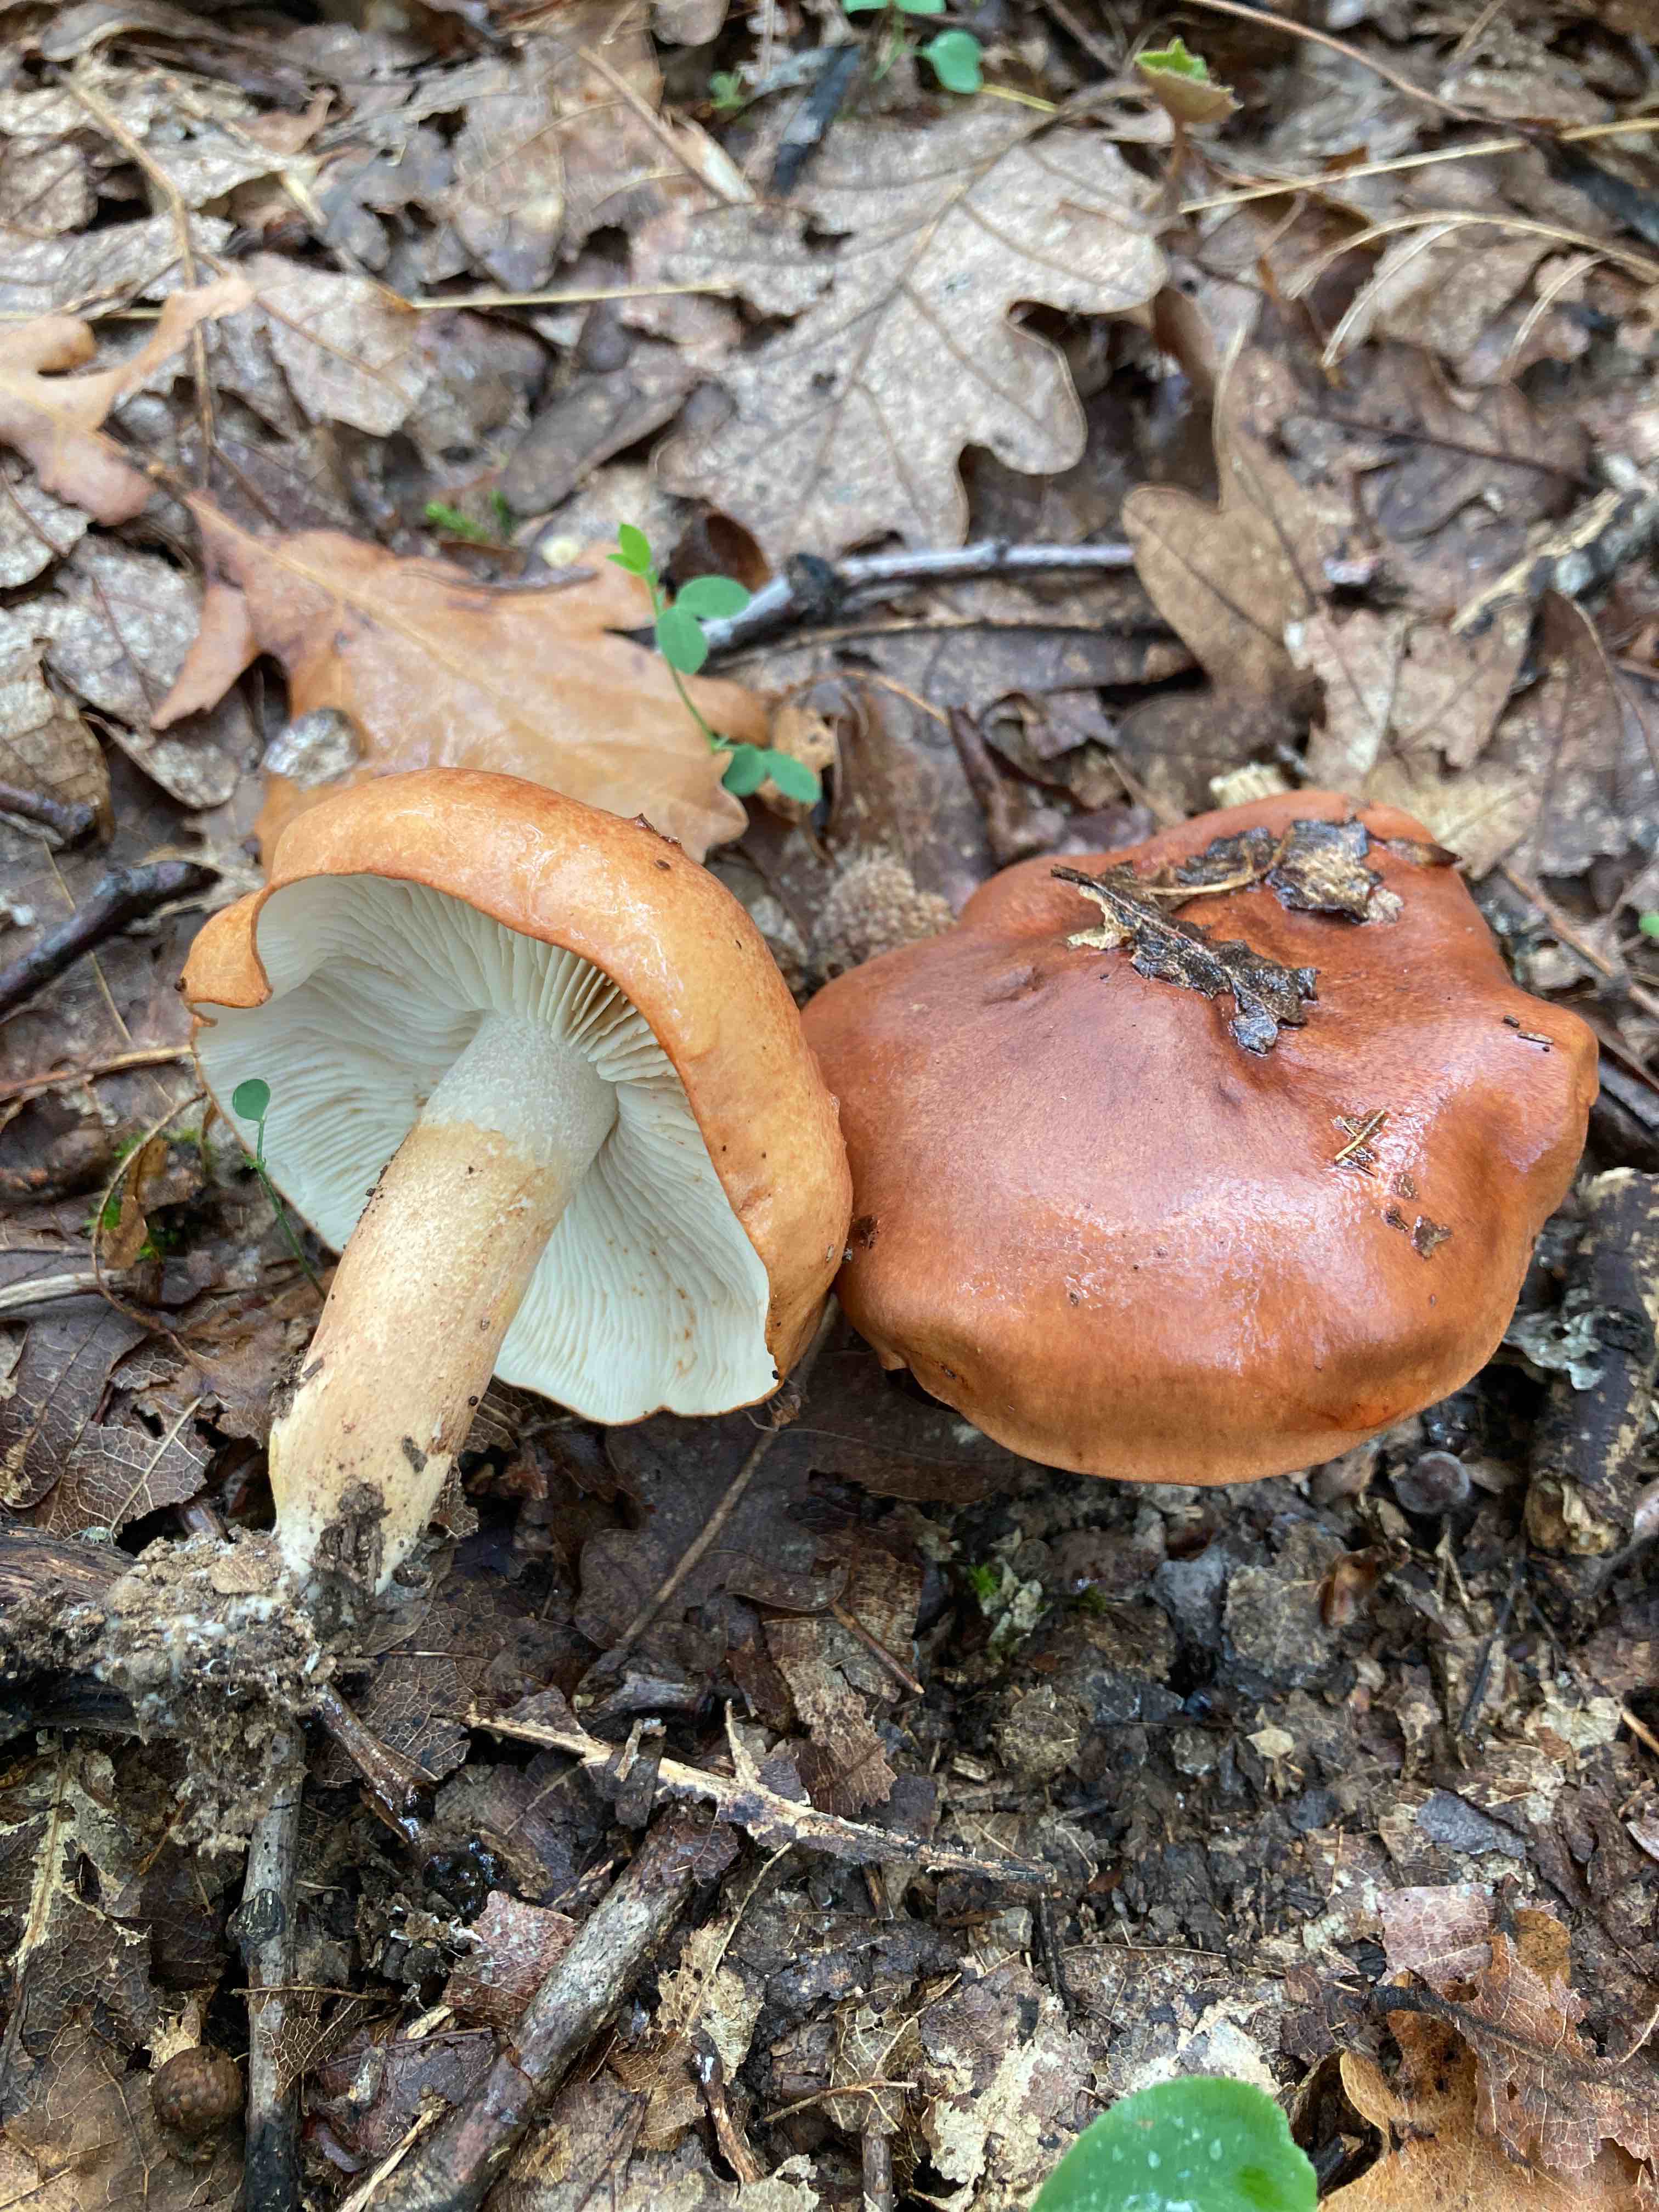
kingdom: Fungi
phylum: Basidiomycota
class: Agaricomycetes
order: Agaricales
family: Tricholomataceae
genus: Tricholoma
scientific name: Tricholoma ustaloides
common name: knippe-ridderhat
